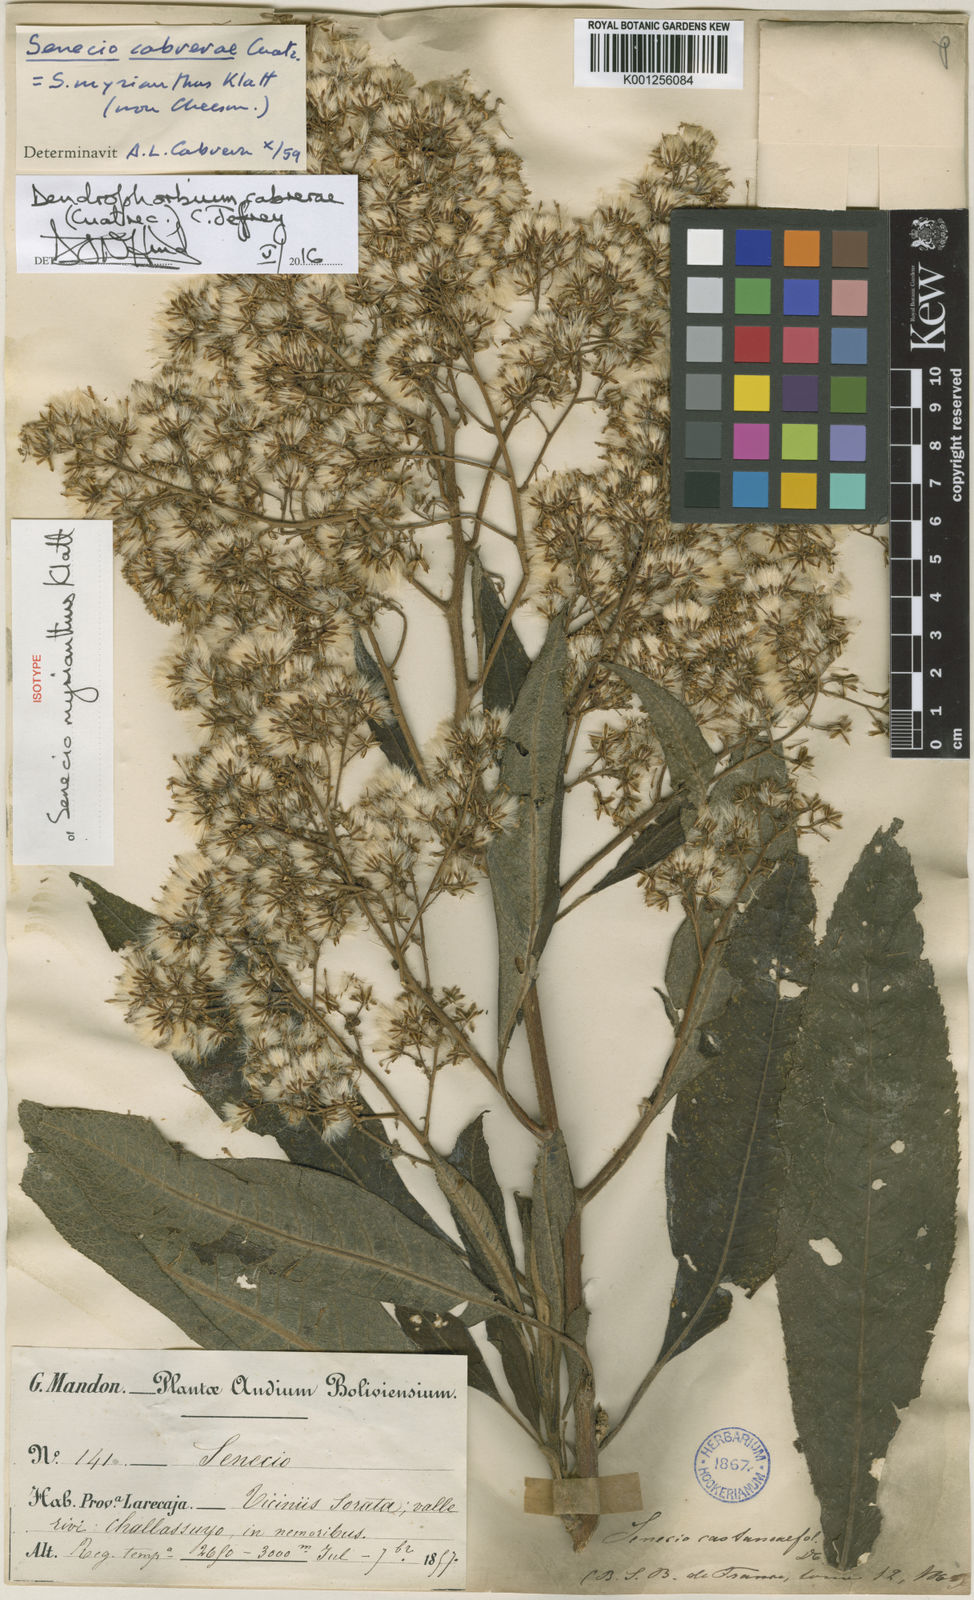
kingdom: Plantae
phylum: Tracheophyta
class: Magnoliopsida
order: Asterales
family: Asteraceae
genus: Dendrophorbium
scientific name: Dendrophorbium cabrerae
